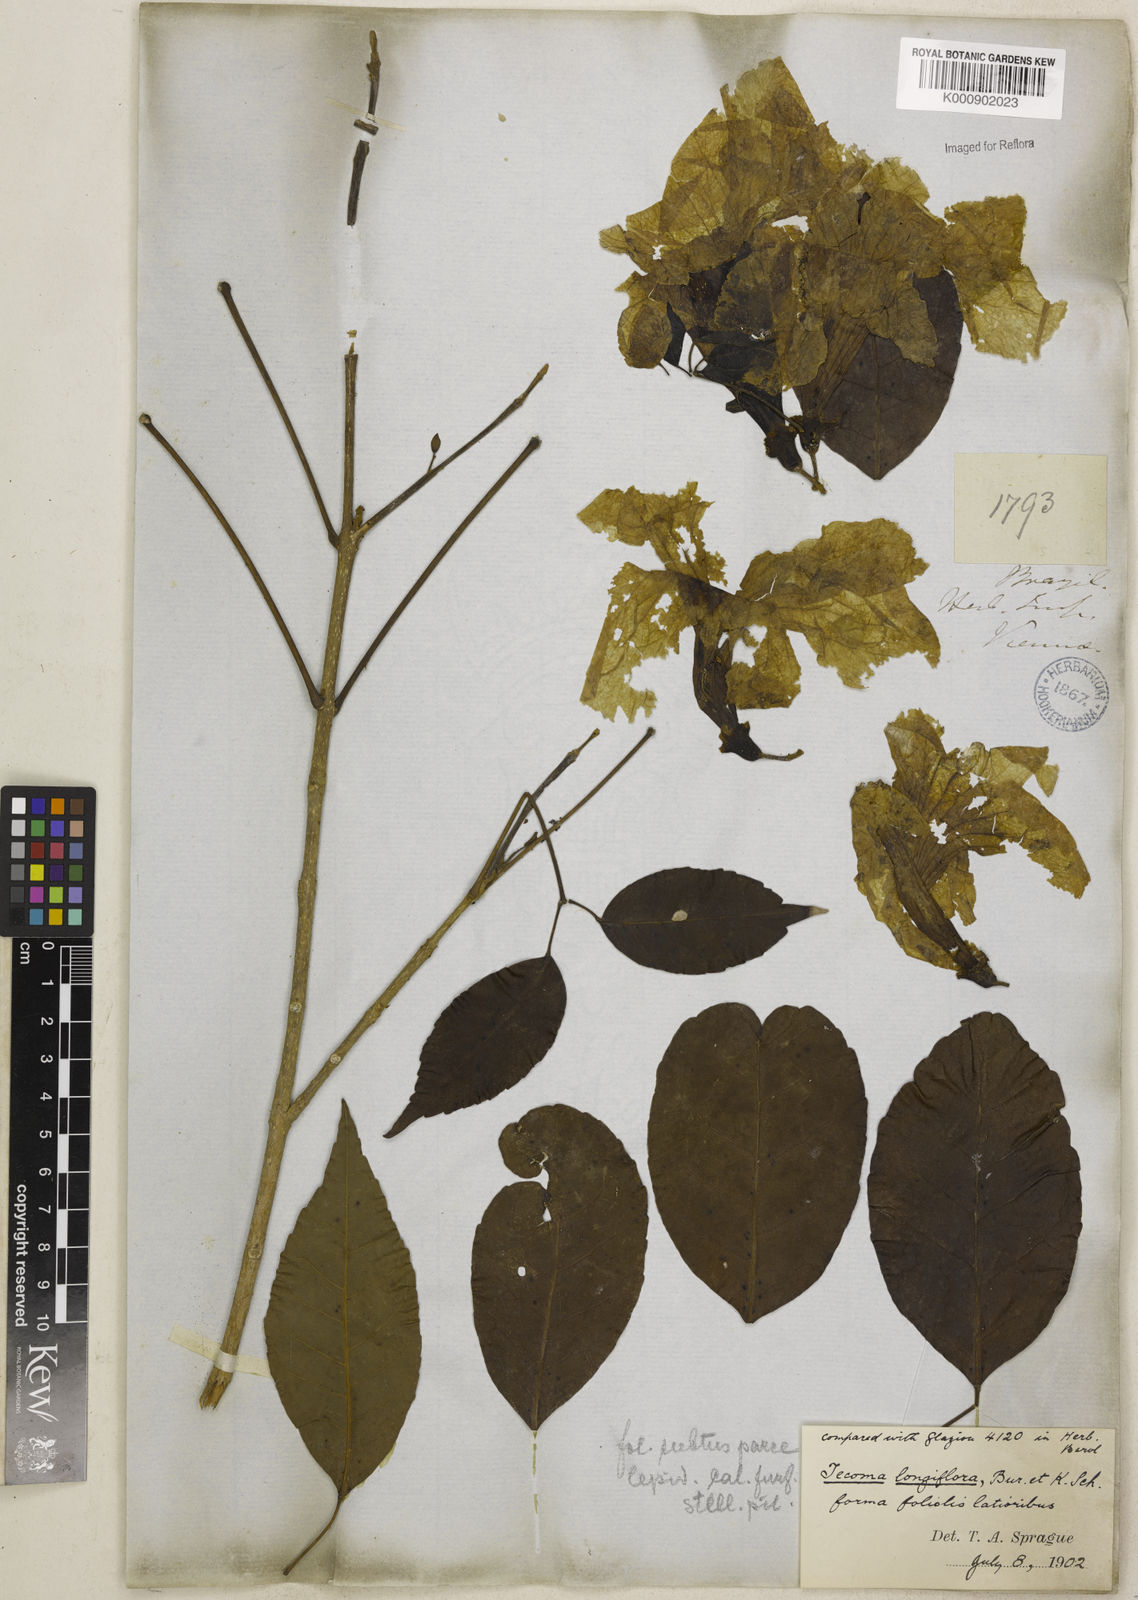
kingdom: Plantae
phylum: Tracheophyta
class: Magnoliopsida
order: Lamiales
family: Bignoniaceae
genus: Ekmanianthe
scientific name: Ekmanianthe longiflora
